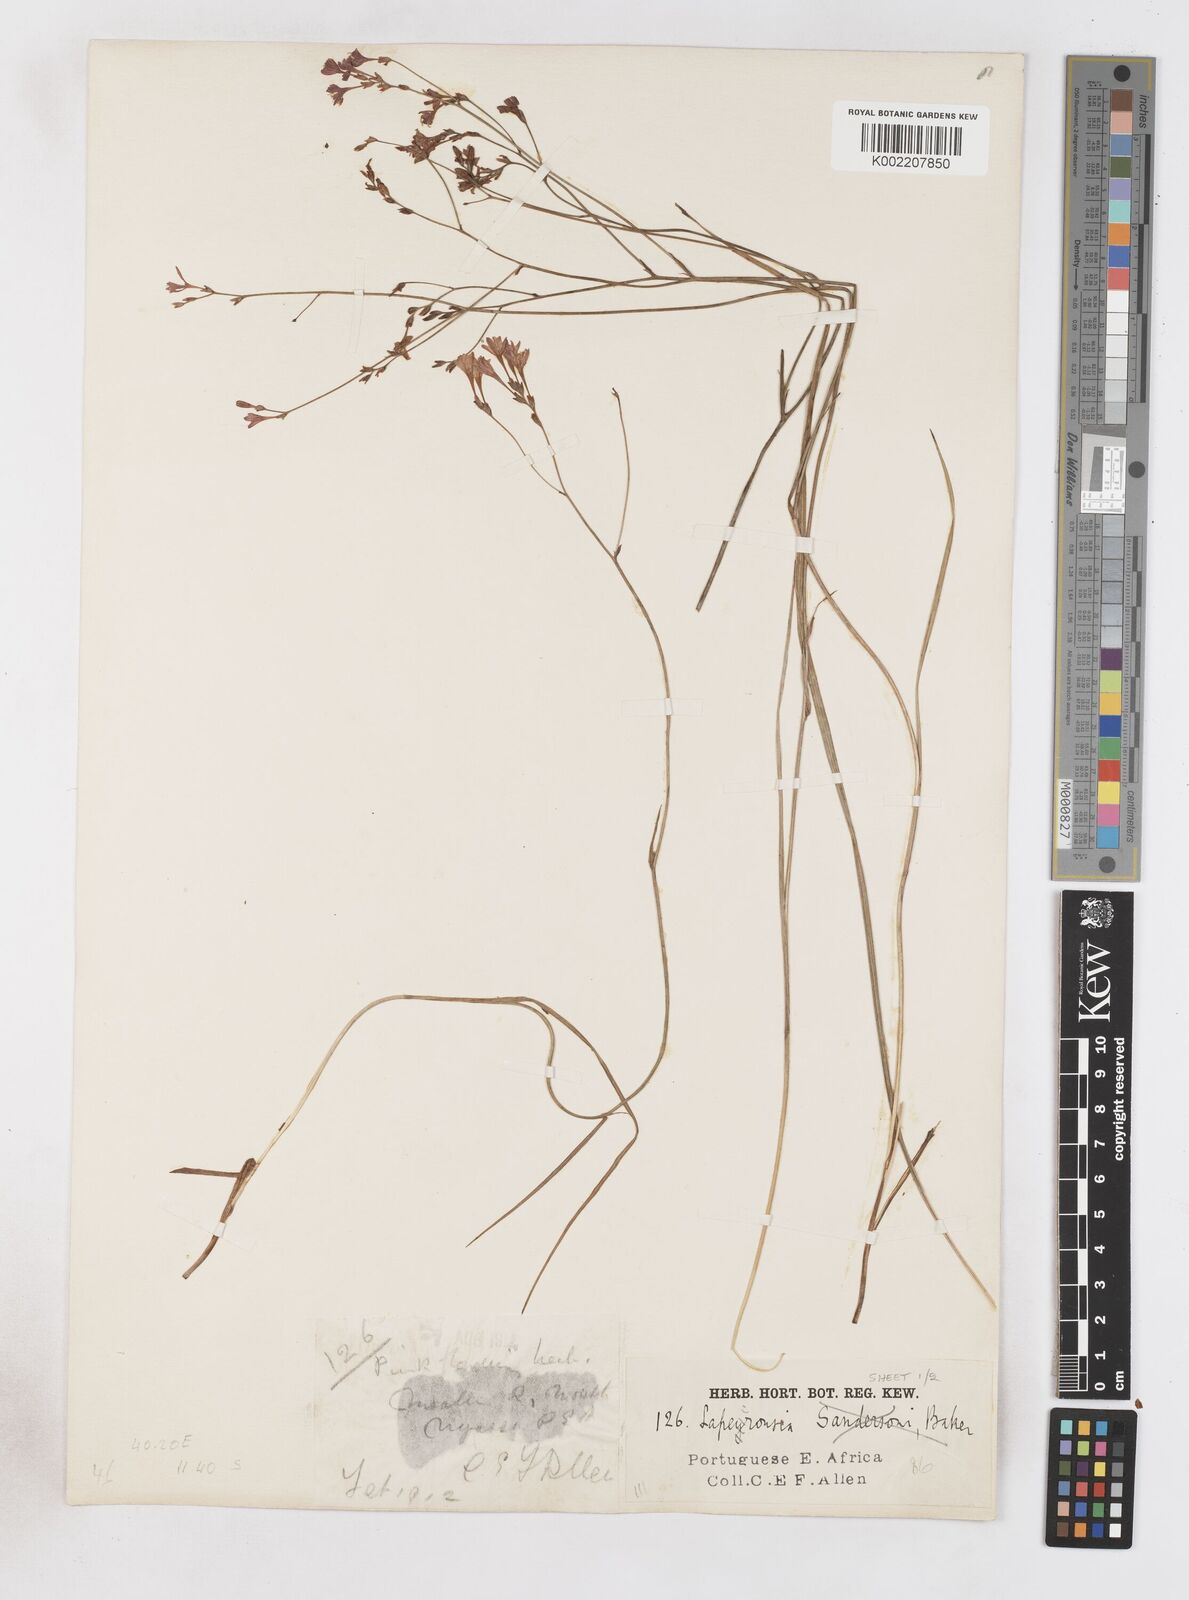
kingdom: Plantae
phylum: Tracheophyta
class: Liliopsida
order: Asparagales
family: Iridaceae
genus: Afrosolen
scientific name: Afrosolen erythranthus
